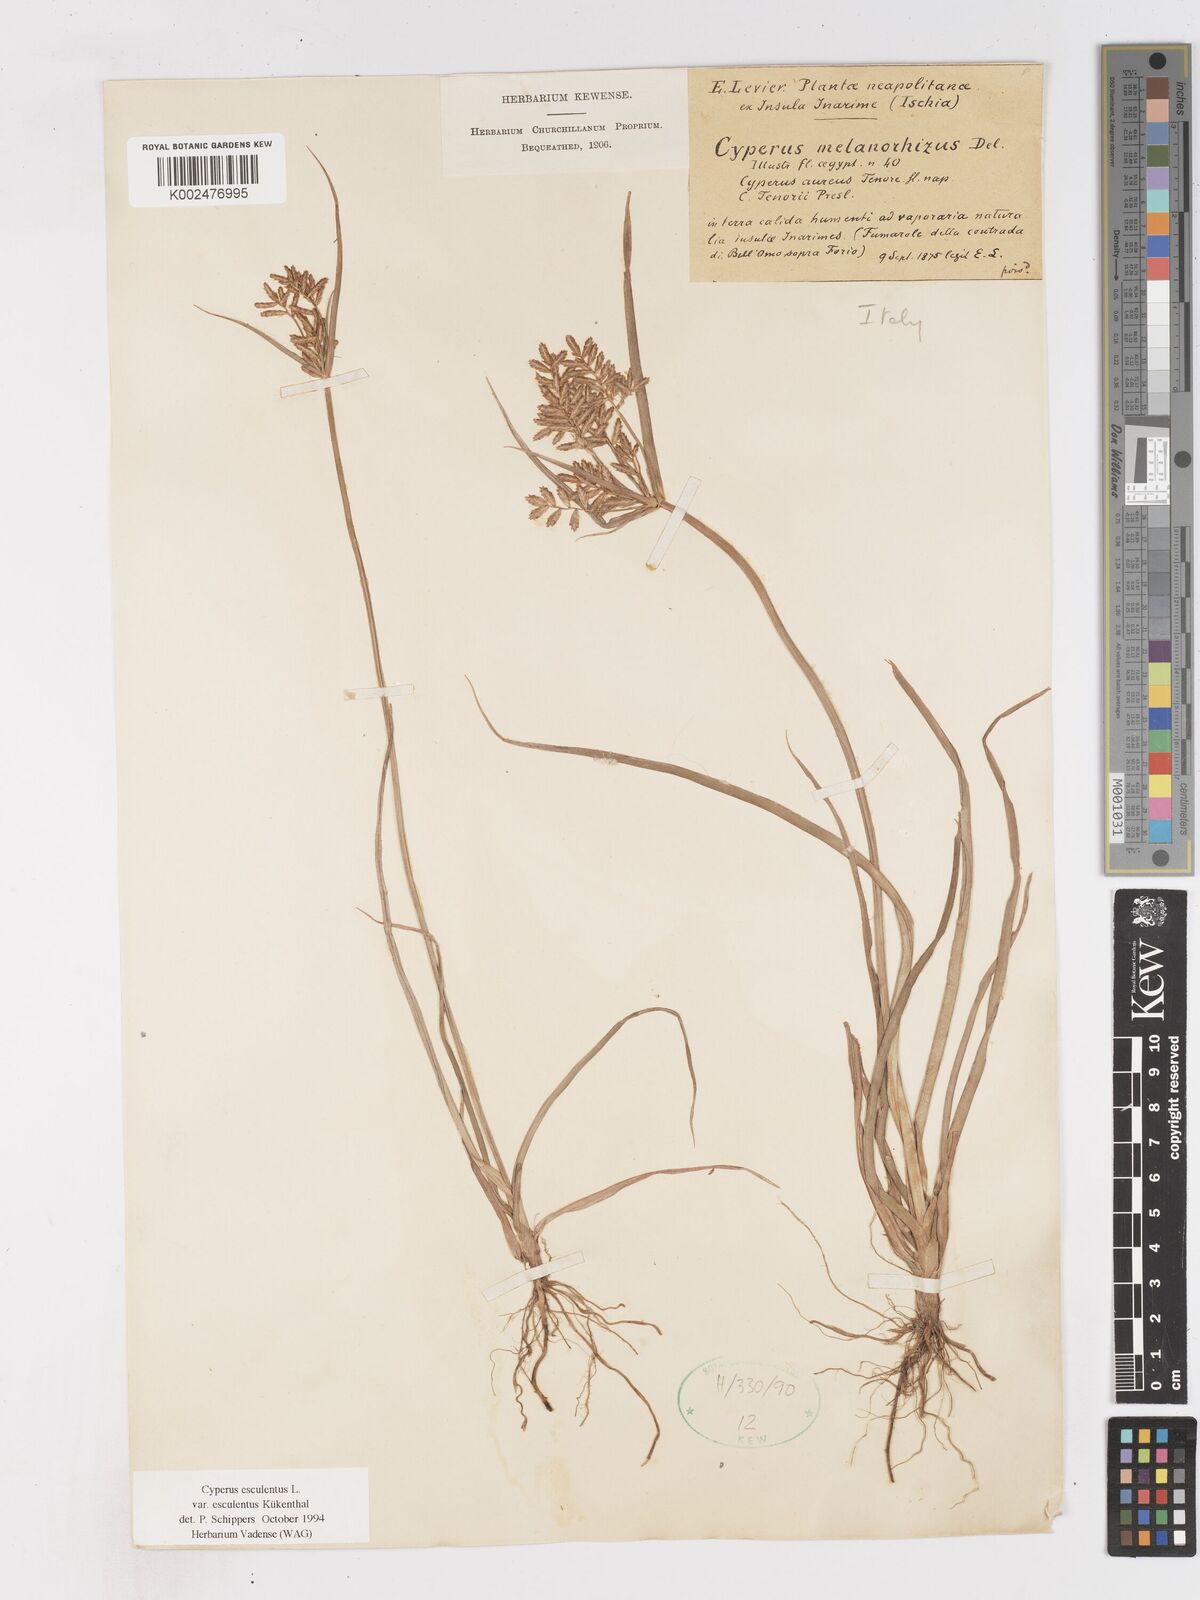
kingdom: Plantae
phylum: Tracheophyta
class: Liliopsida
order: Poales
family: Cyperaceae
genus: Cyperus
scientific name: Cyperus esculentus
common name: Yellow nutsedge
